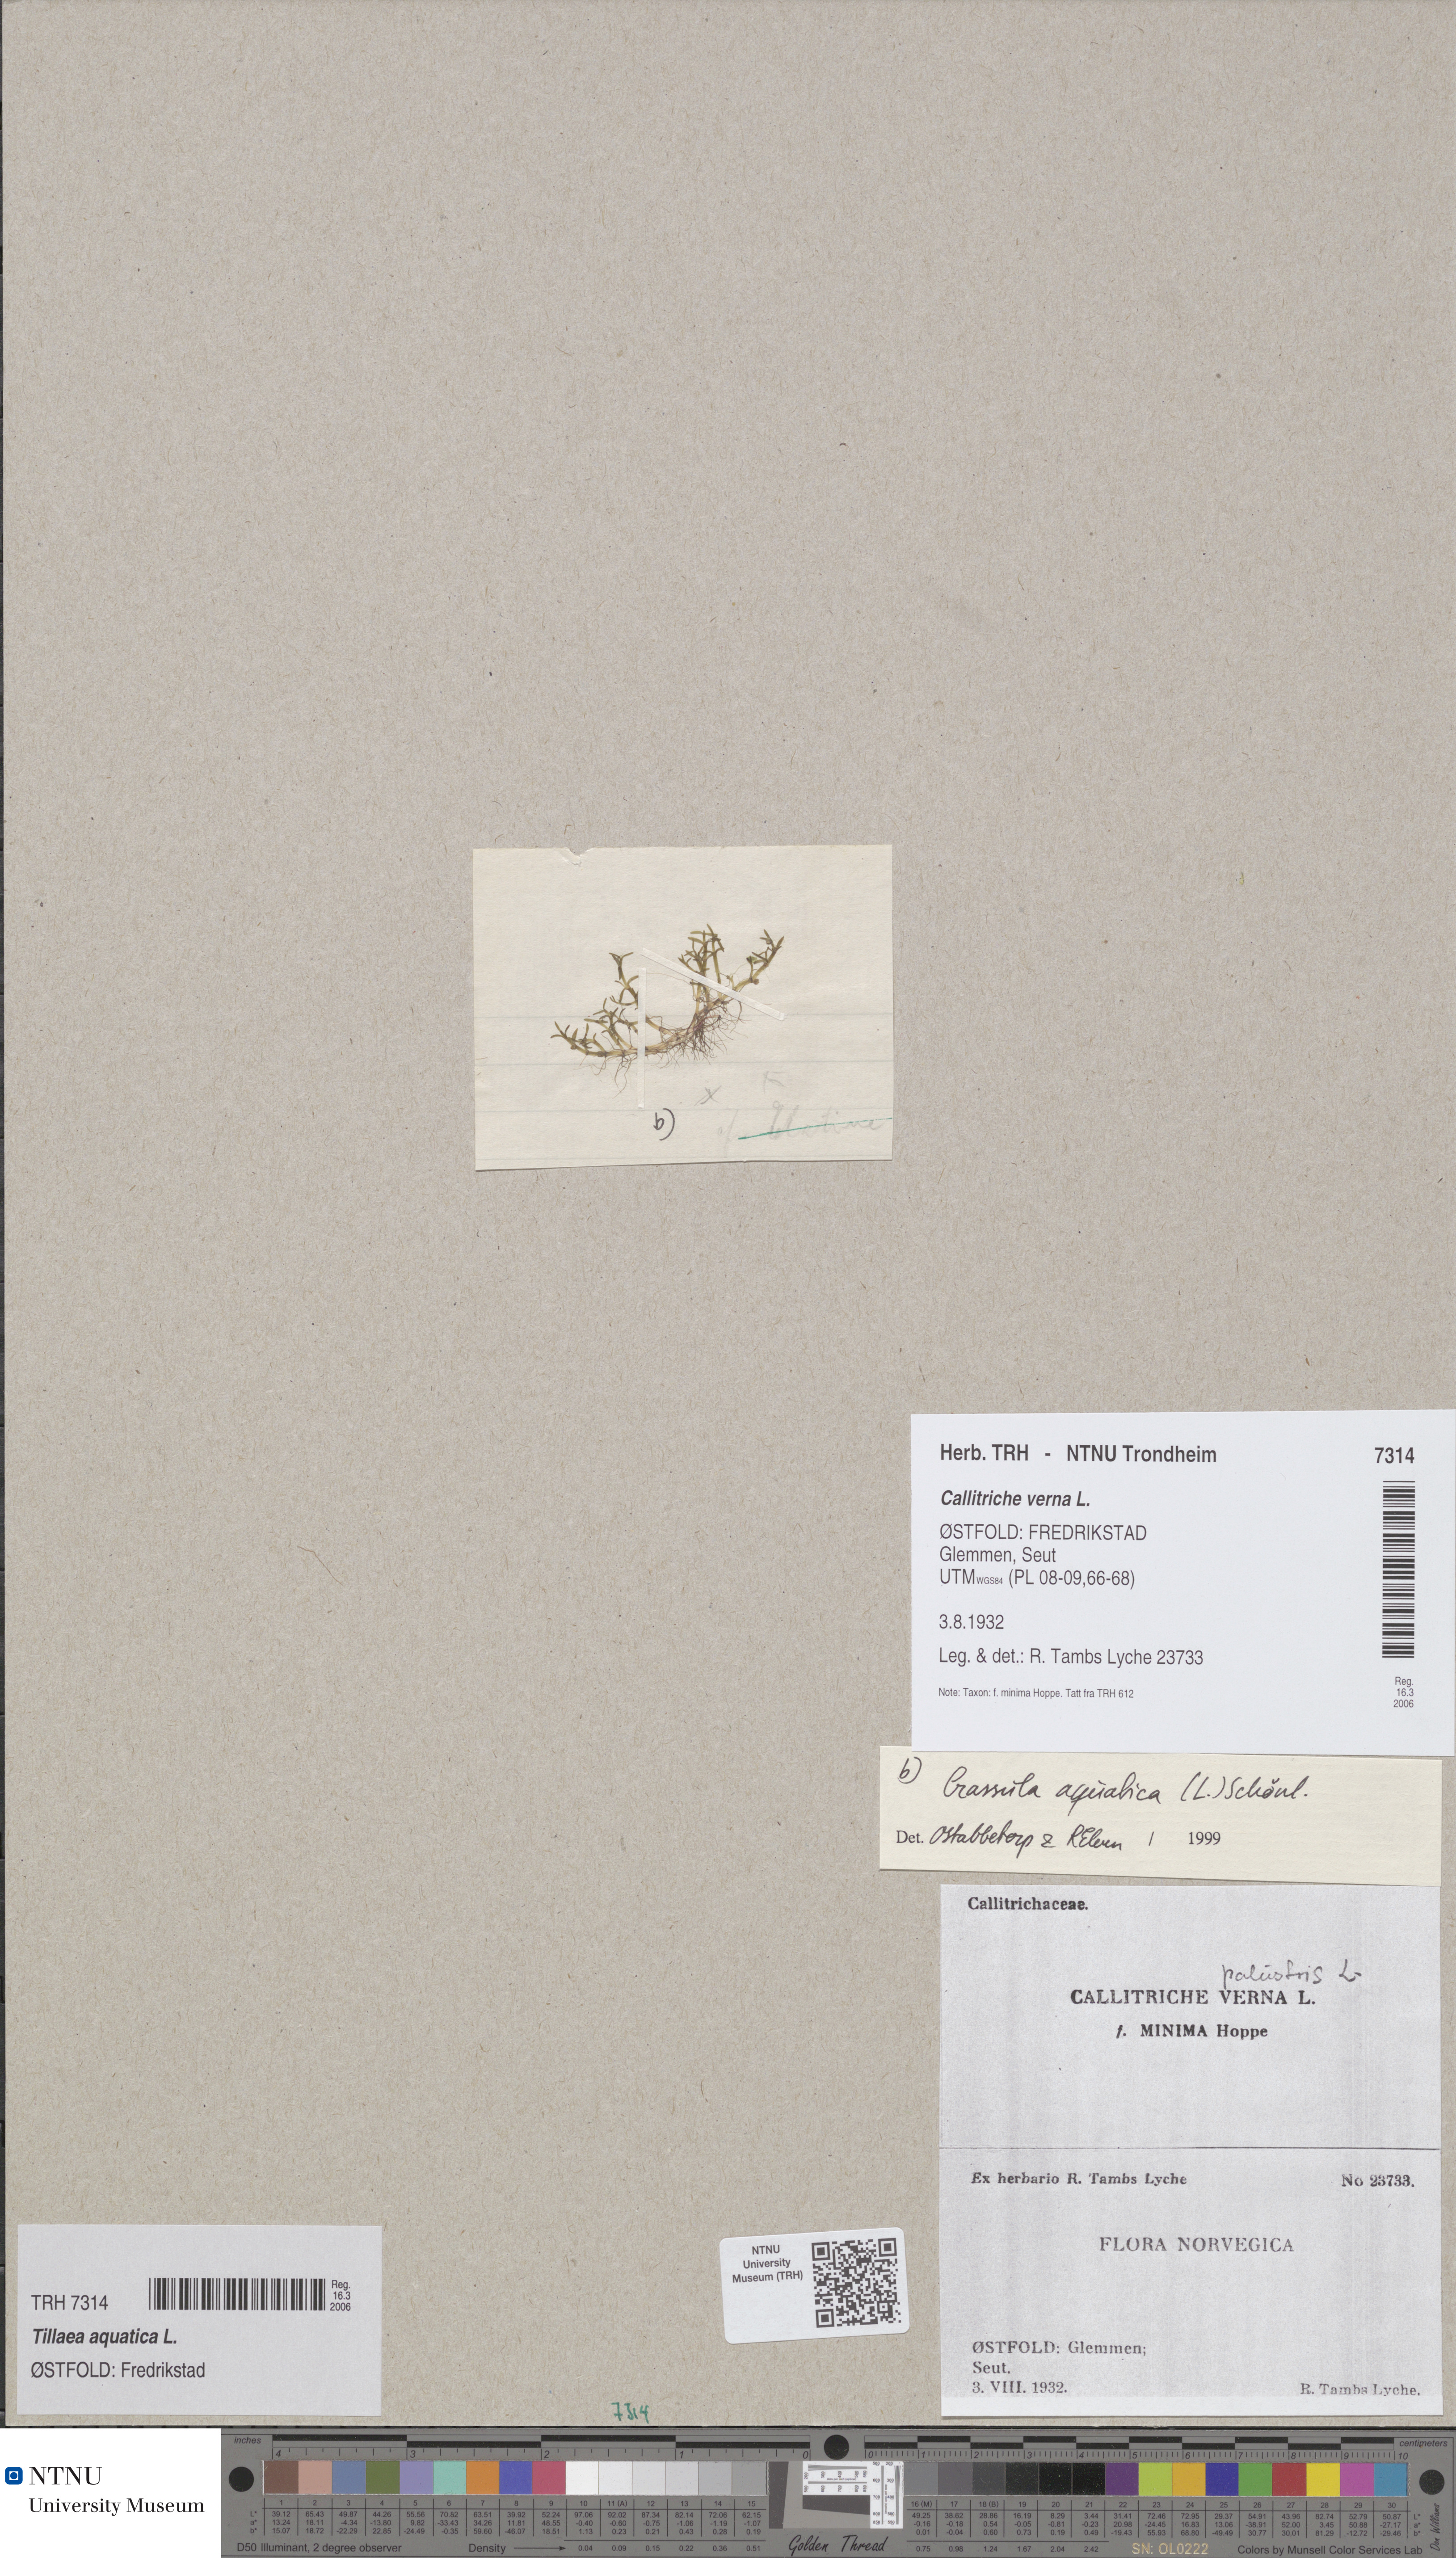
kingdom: Plantae
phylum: Tracheophyta
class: Magnoliopsida
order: Saxifragales
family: Crassulaceae
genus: Crassula
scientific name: Crassula aquatica
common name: Pigmyweed
